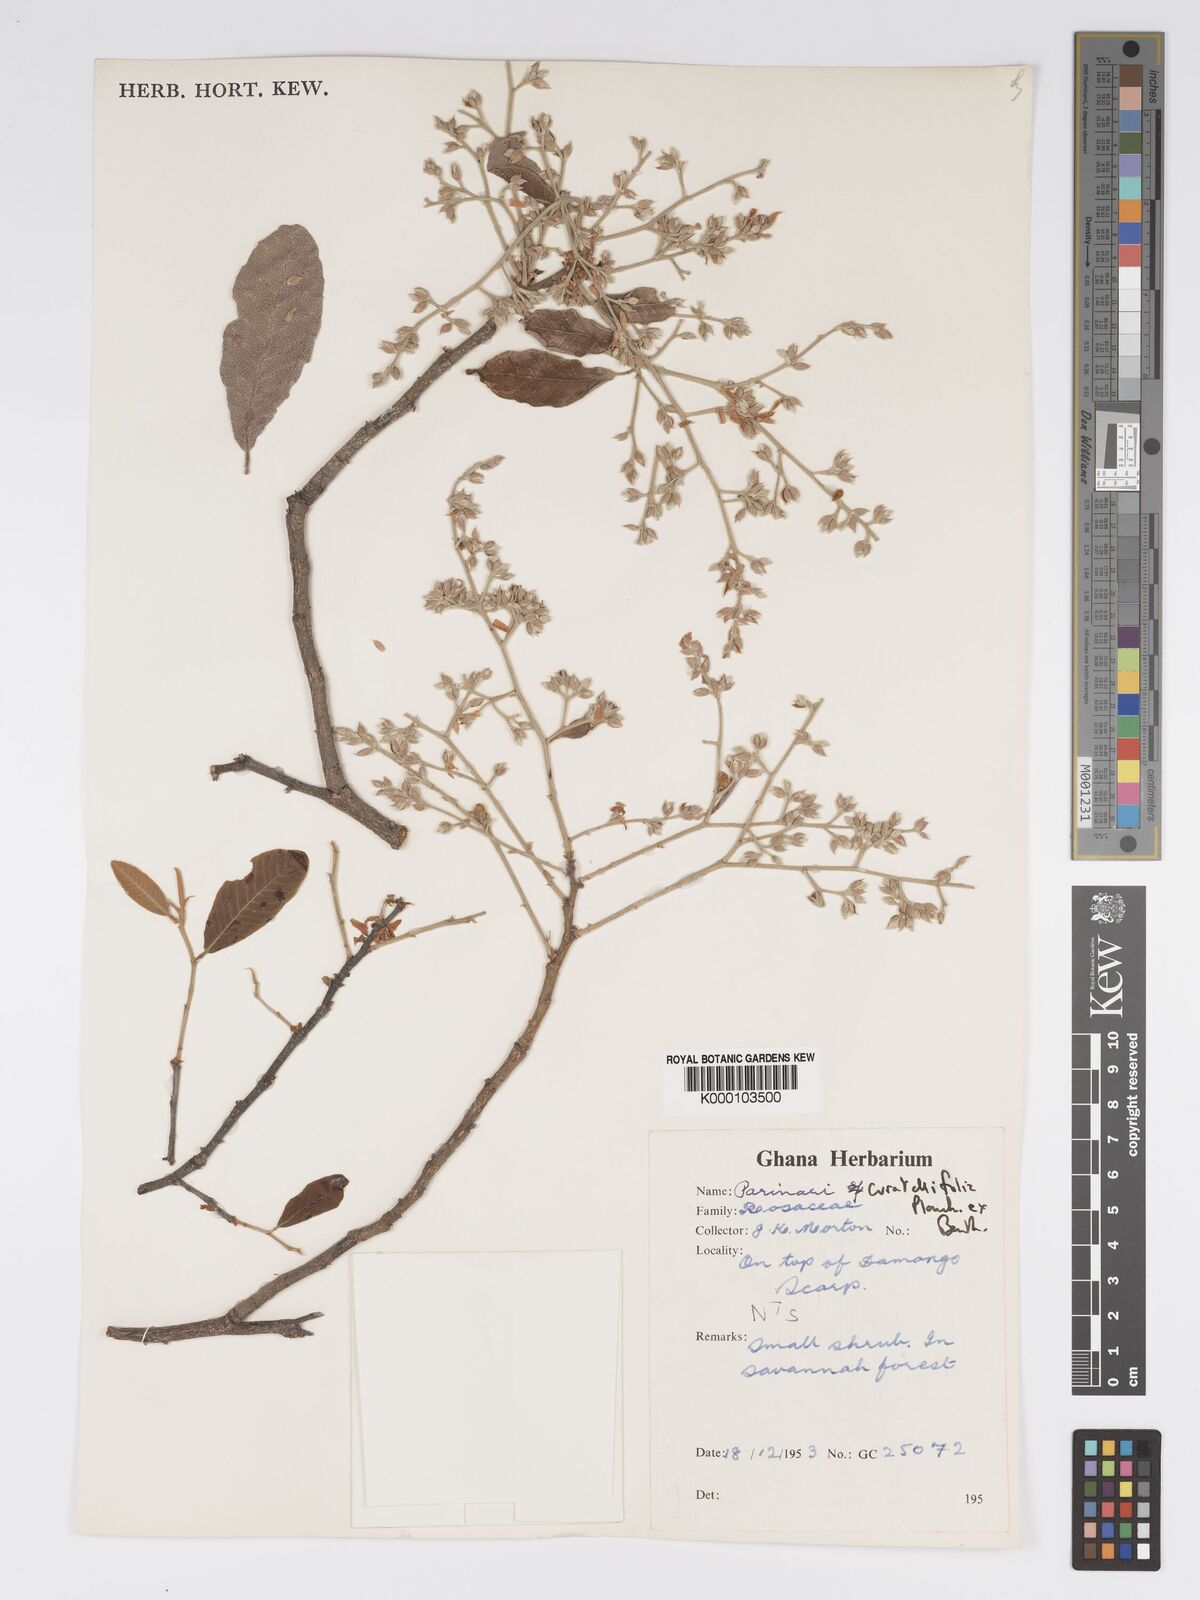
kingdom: Plantae
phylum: Tracheophyta
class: Magnoliopsida
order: Malpighiales
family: Chrysobalanaceae
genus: Parinari
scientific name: Parinari curatellifolia
